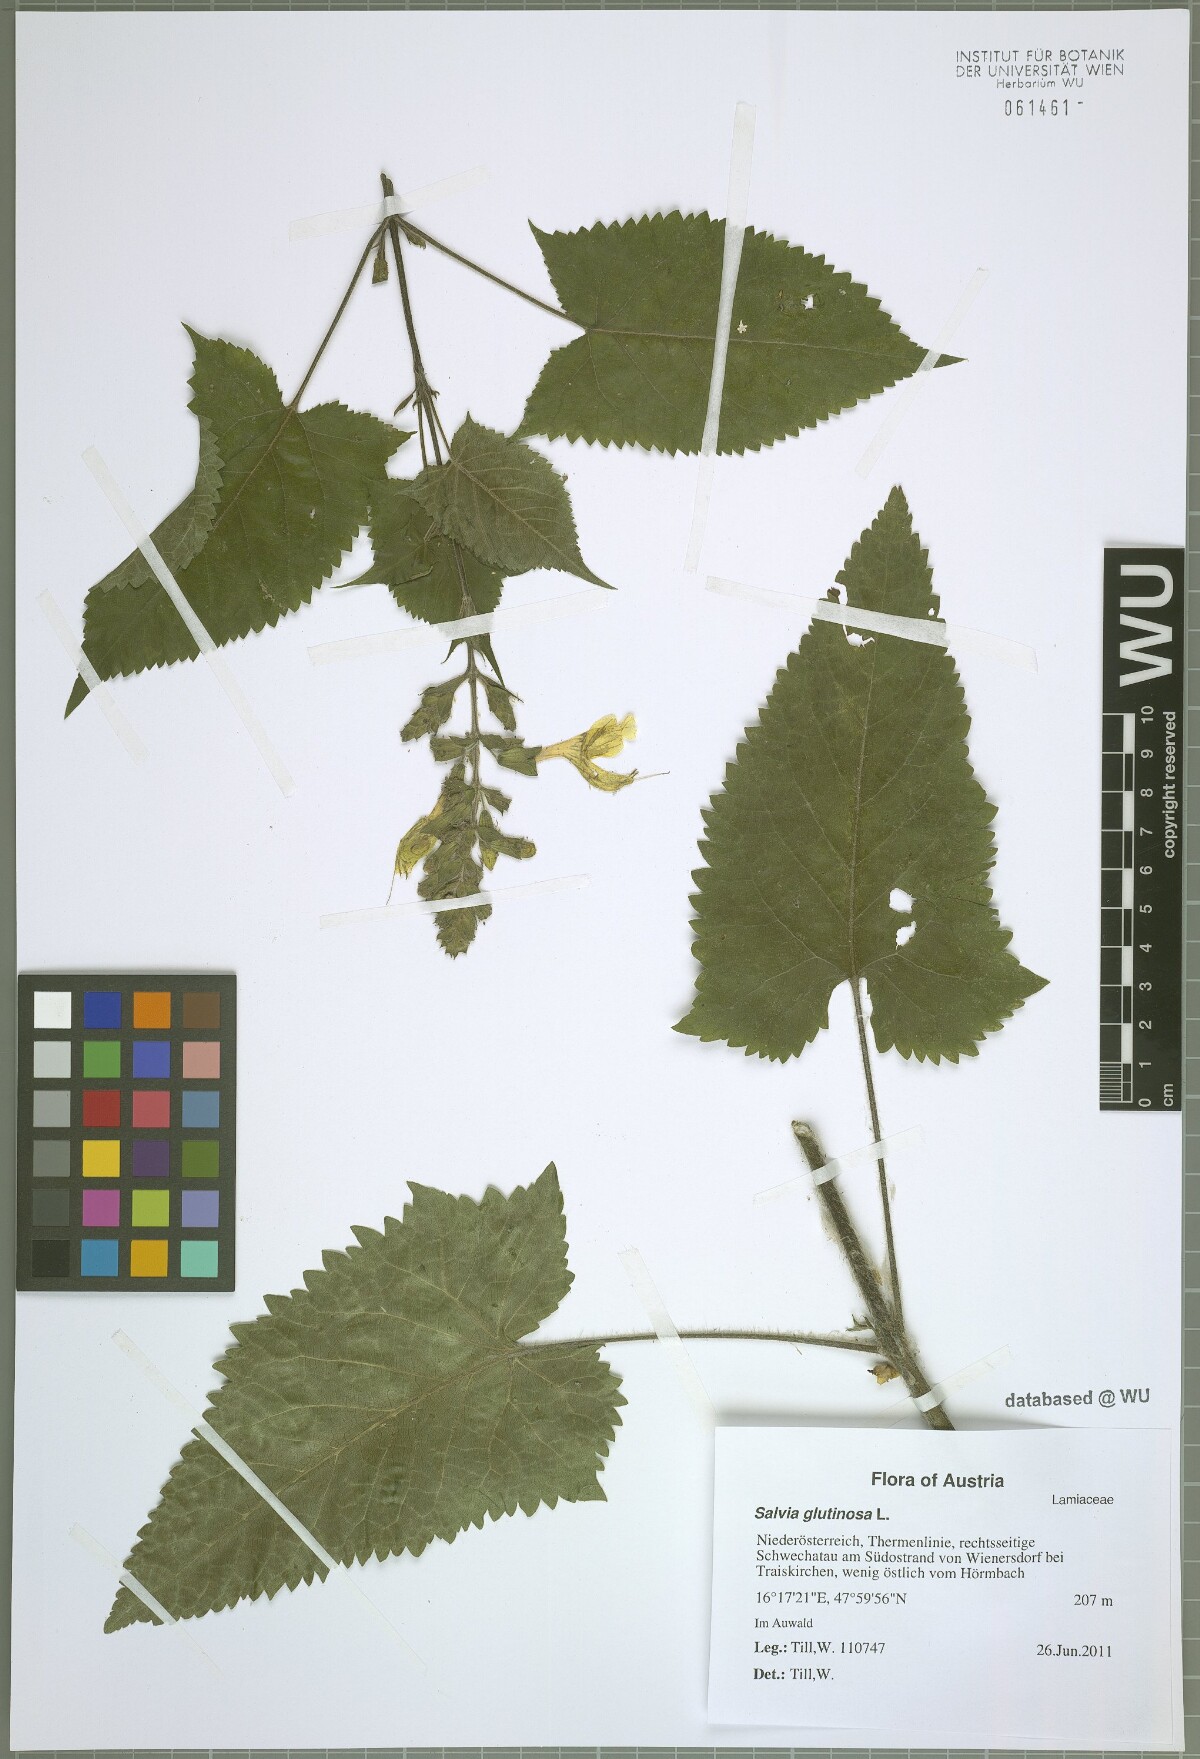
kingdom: Plantae
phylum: Tracheophyta
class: Magnoliopsida
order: Lamiales
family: Lamiaceae
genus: Salvia
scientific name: Salvia glutinosa
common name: Sticky clary
